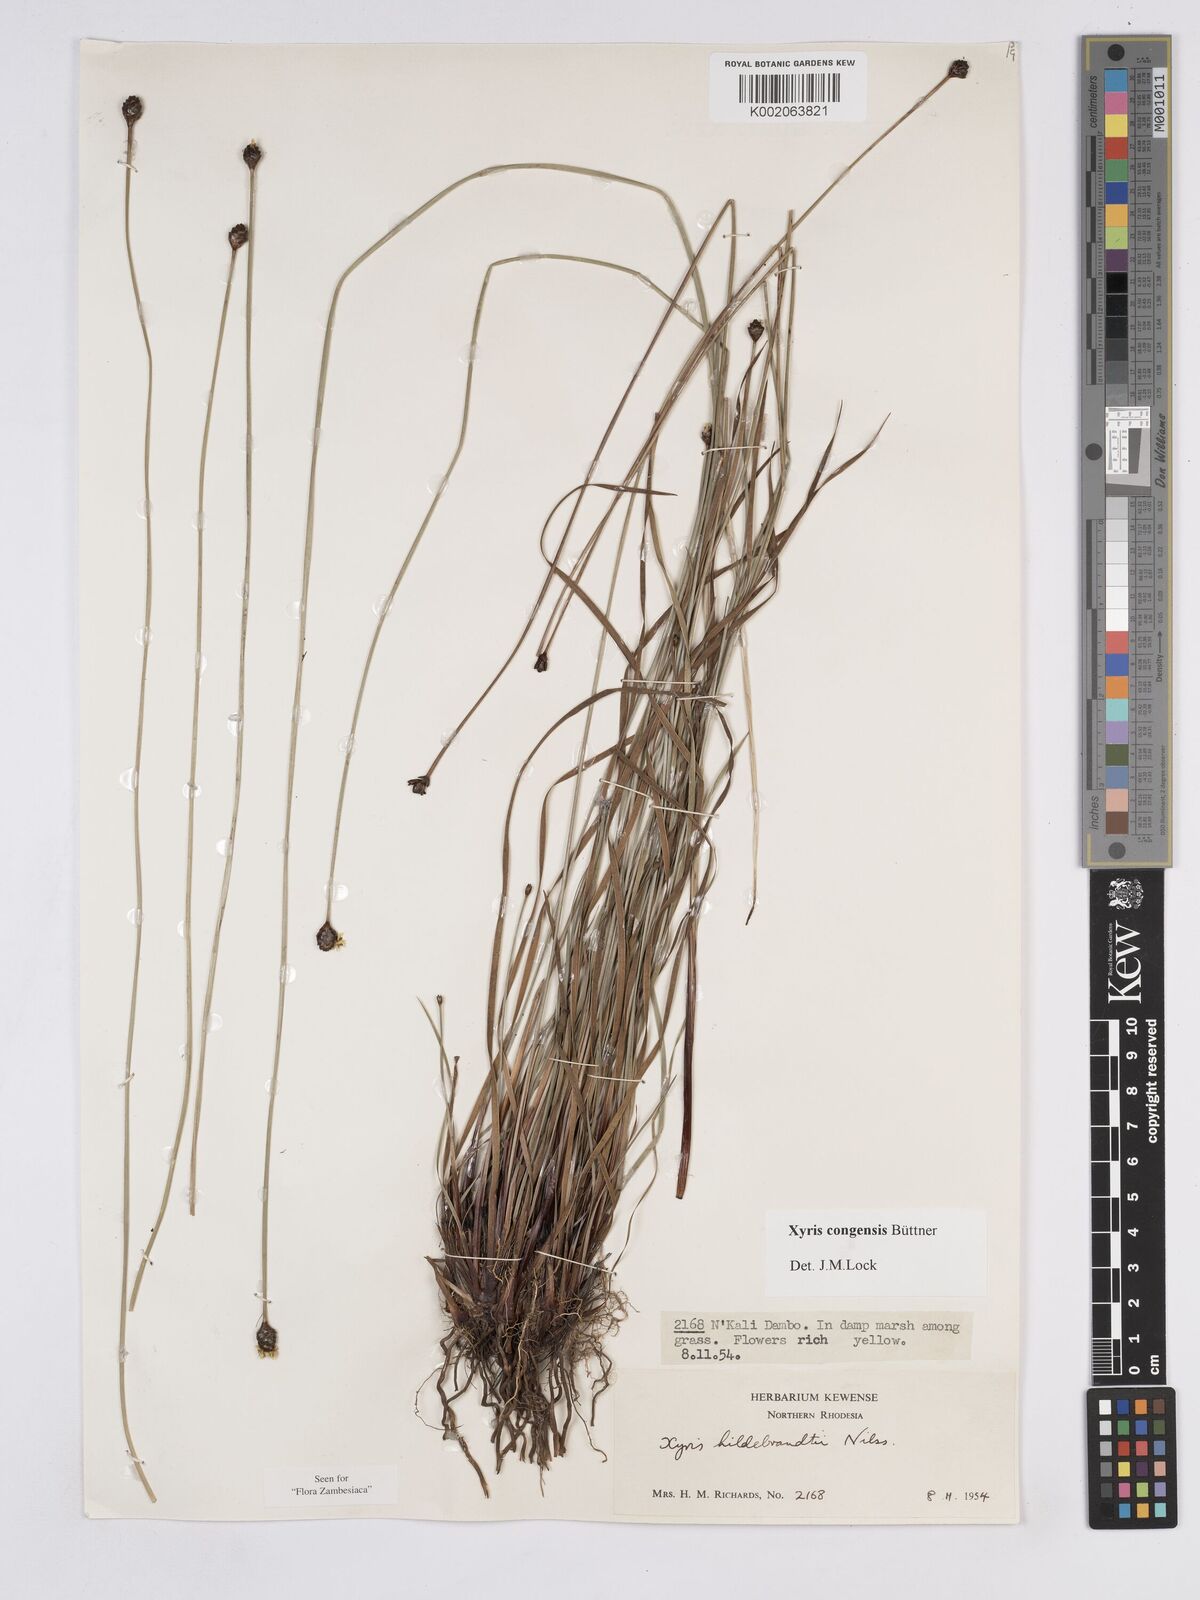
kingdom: Plantae
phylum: Tracheophyta
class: Liliopsida
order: Poales
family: Xyridaceae
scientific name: Xyridaceae
